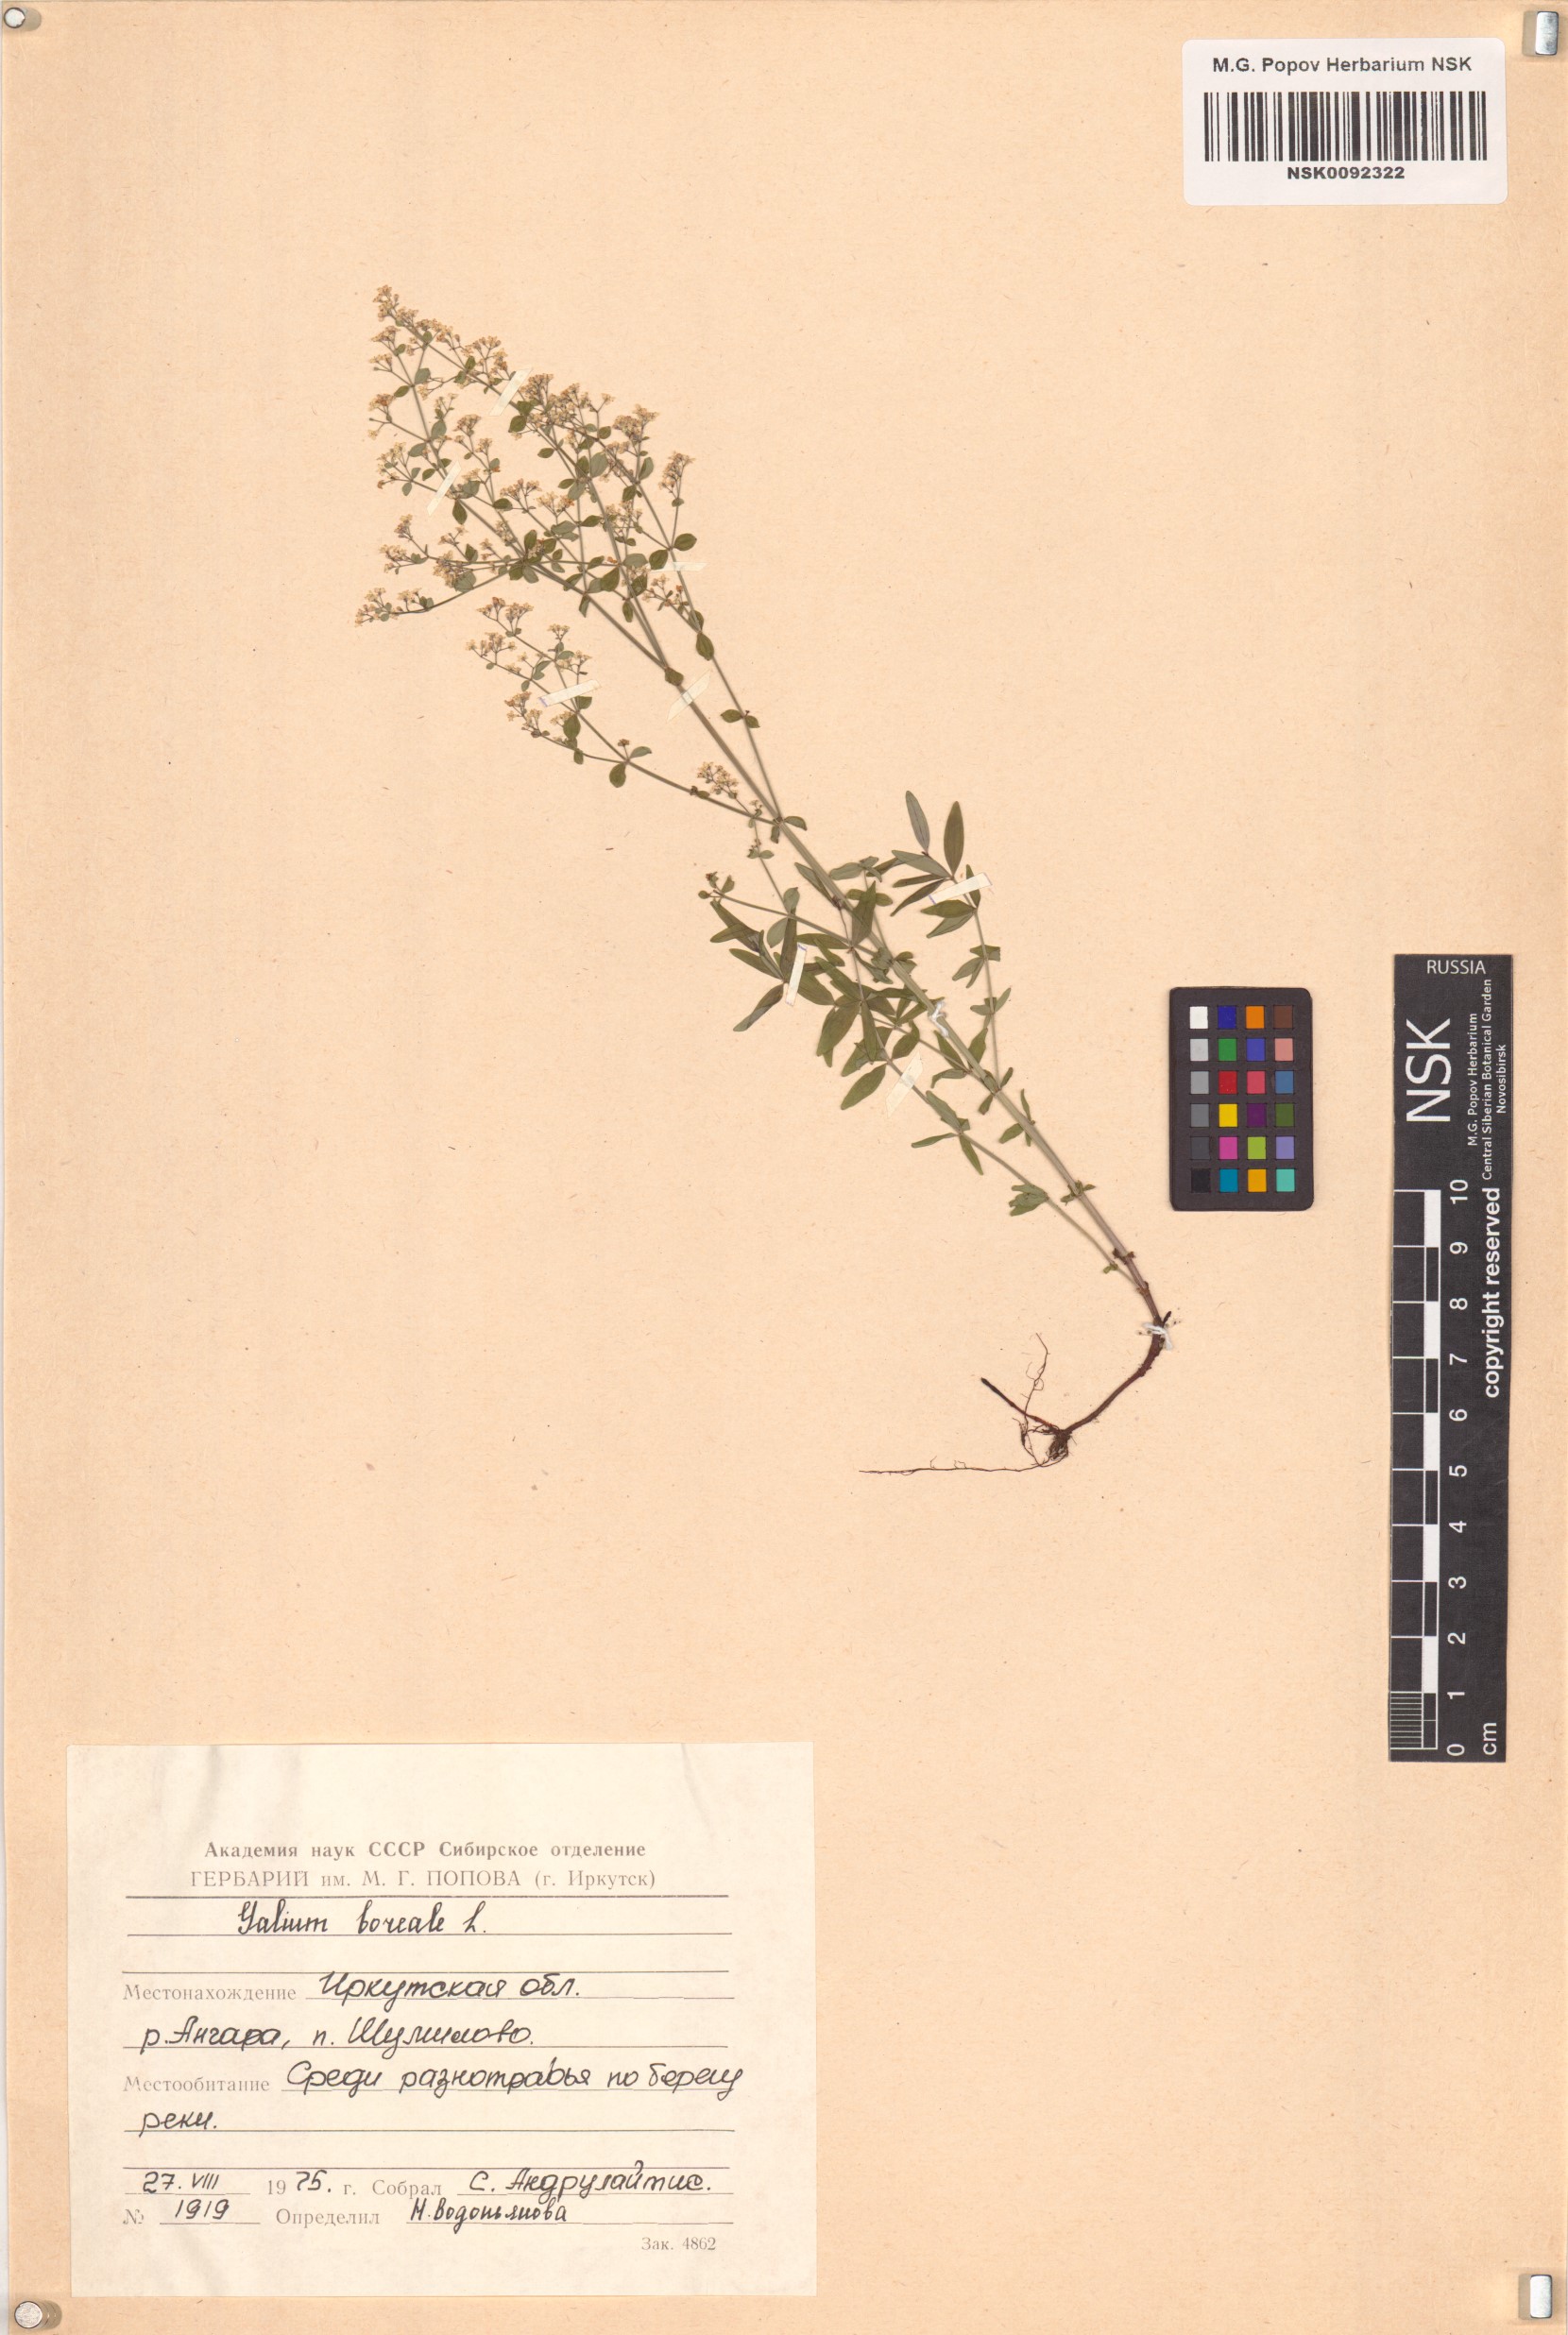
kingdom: Plantae
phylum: Tracheophyta
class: Magnoliopsida
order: Gentianales
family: Rubiaceae
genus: Galium
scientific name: Galium boreale
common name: Northern bedstraw
